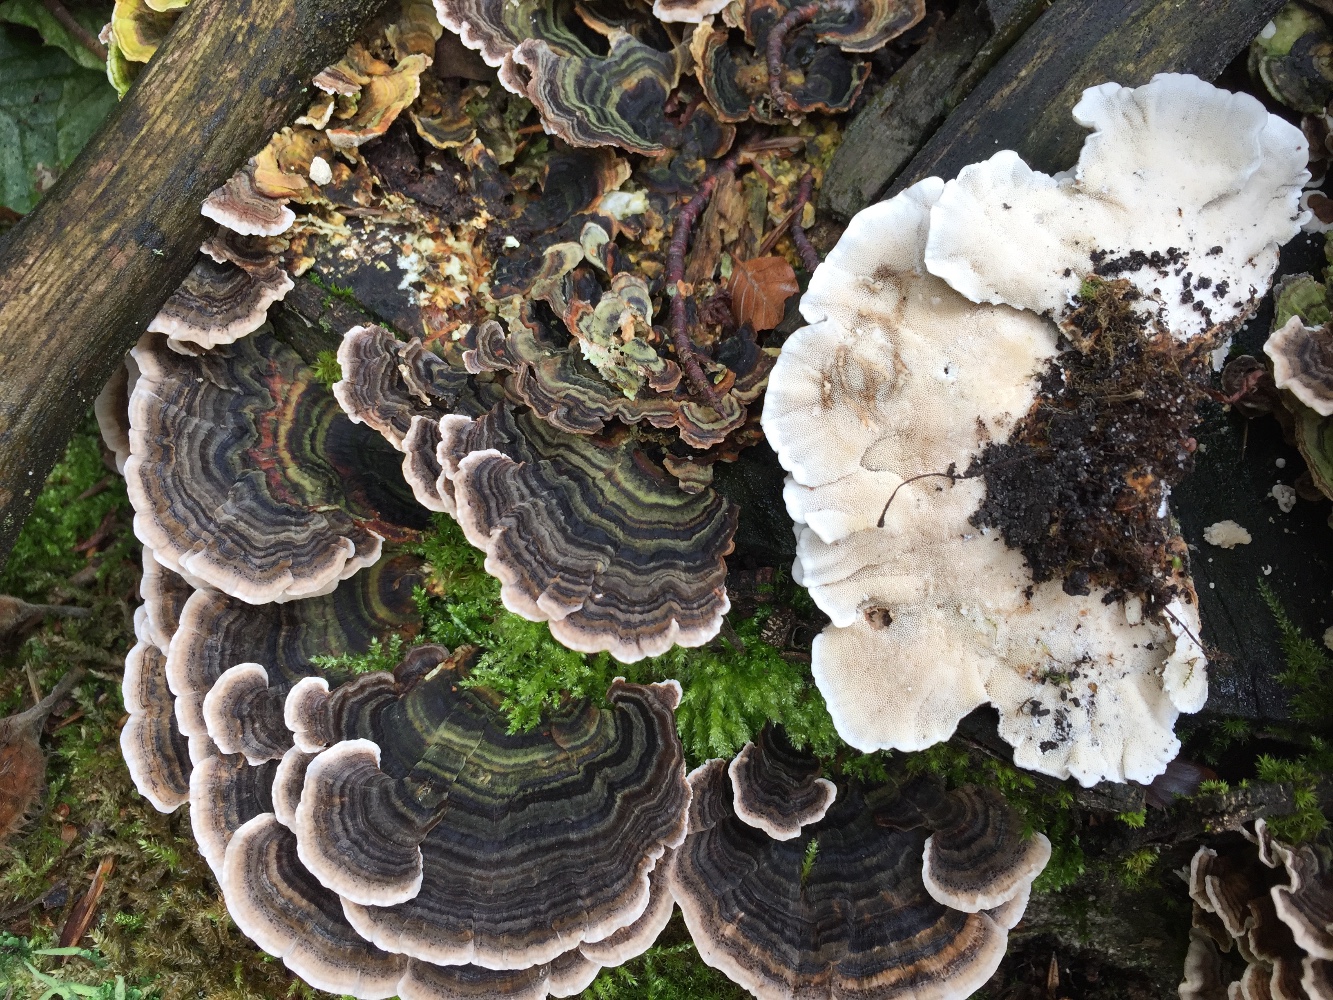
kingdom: Fungi
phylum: Basidiomycota
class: Agaricomycetes
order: Polyporales
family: Polyporaceae
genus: Trametes
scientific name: Trametes versicolor
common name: broget læderporesvamp
